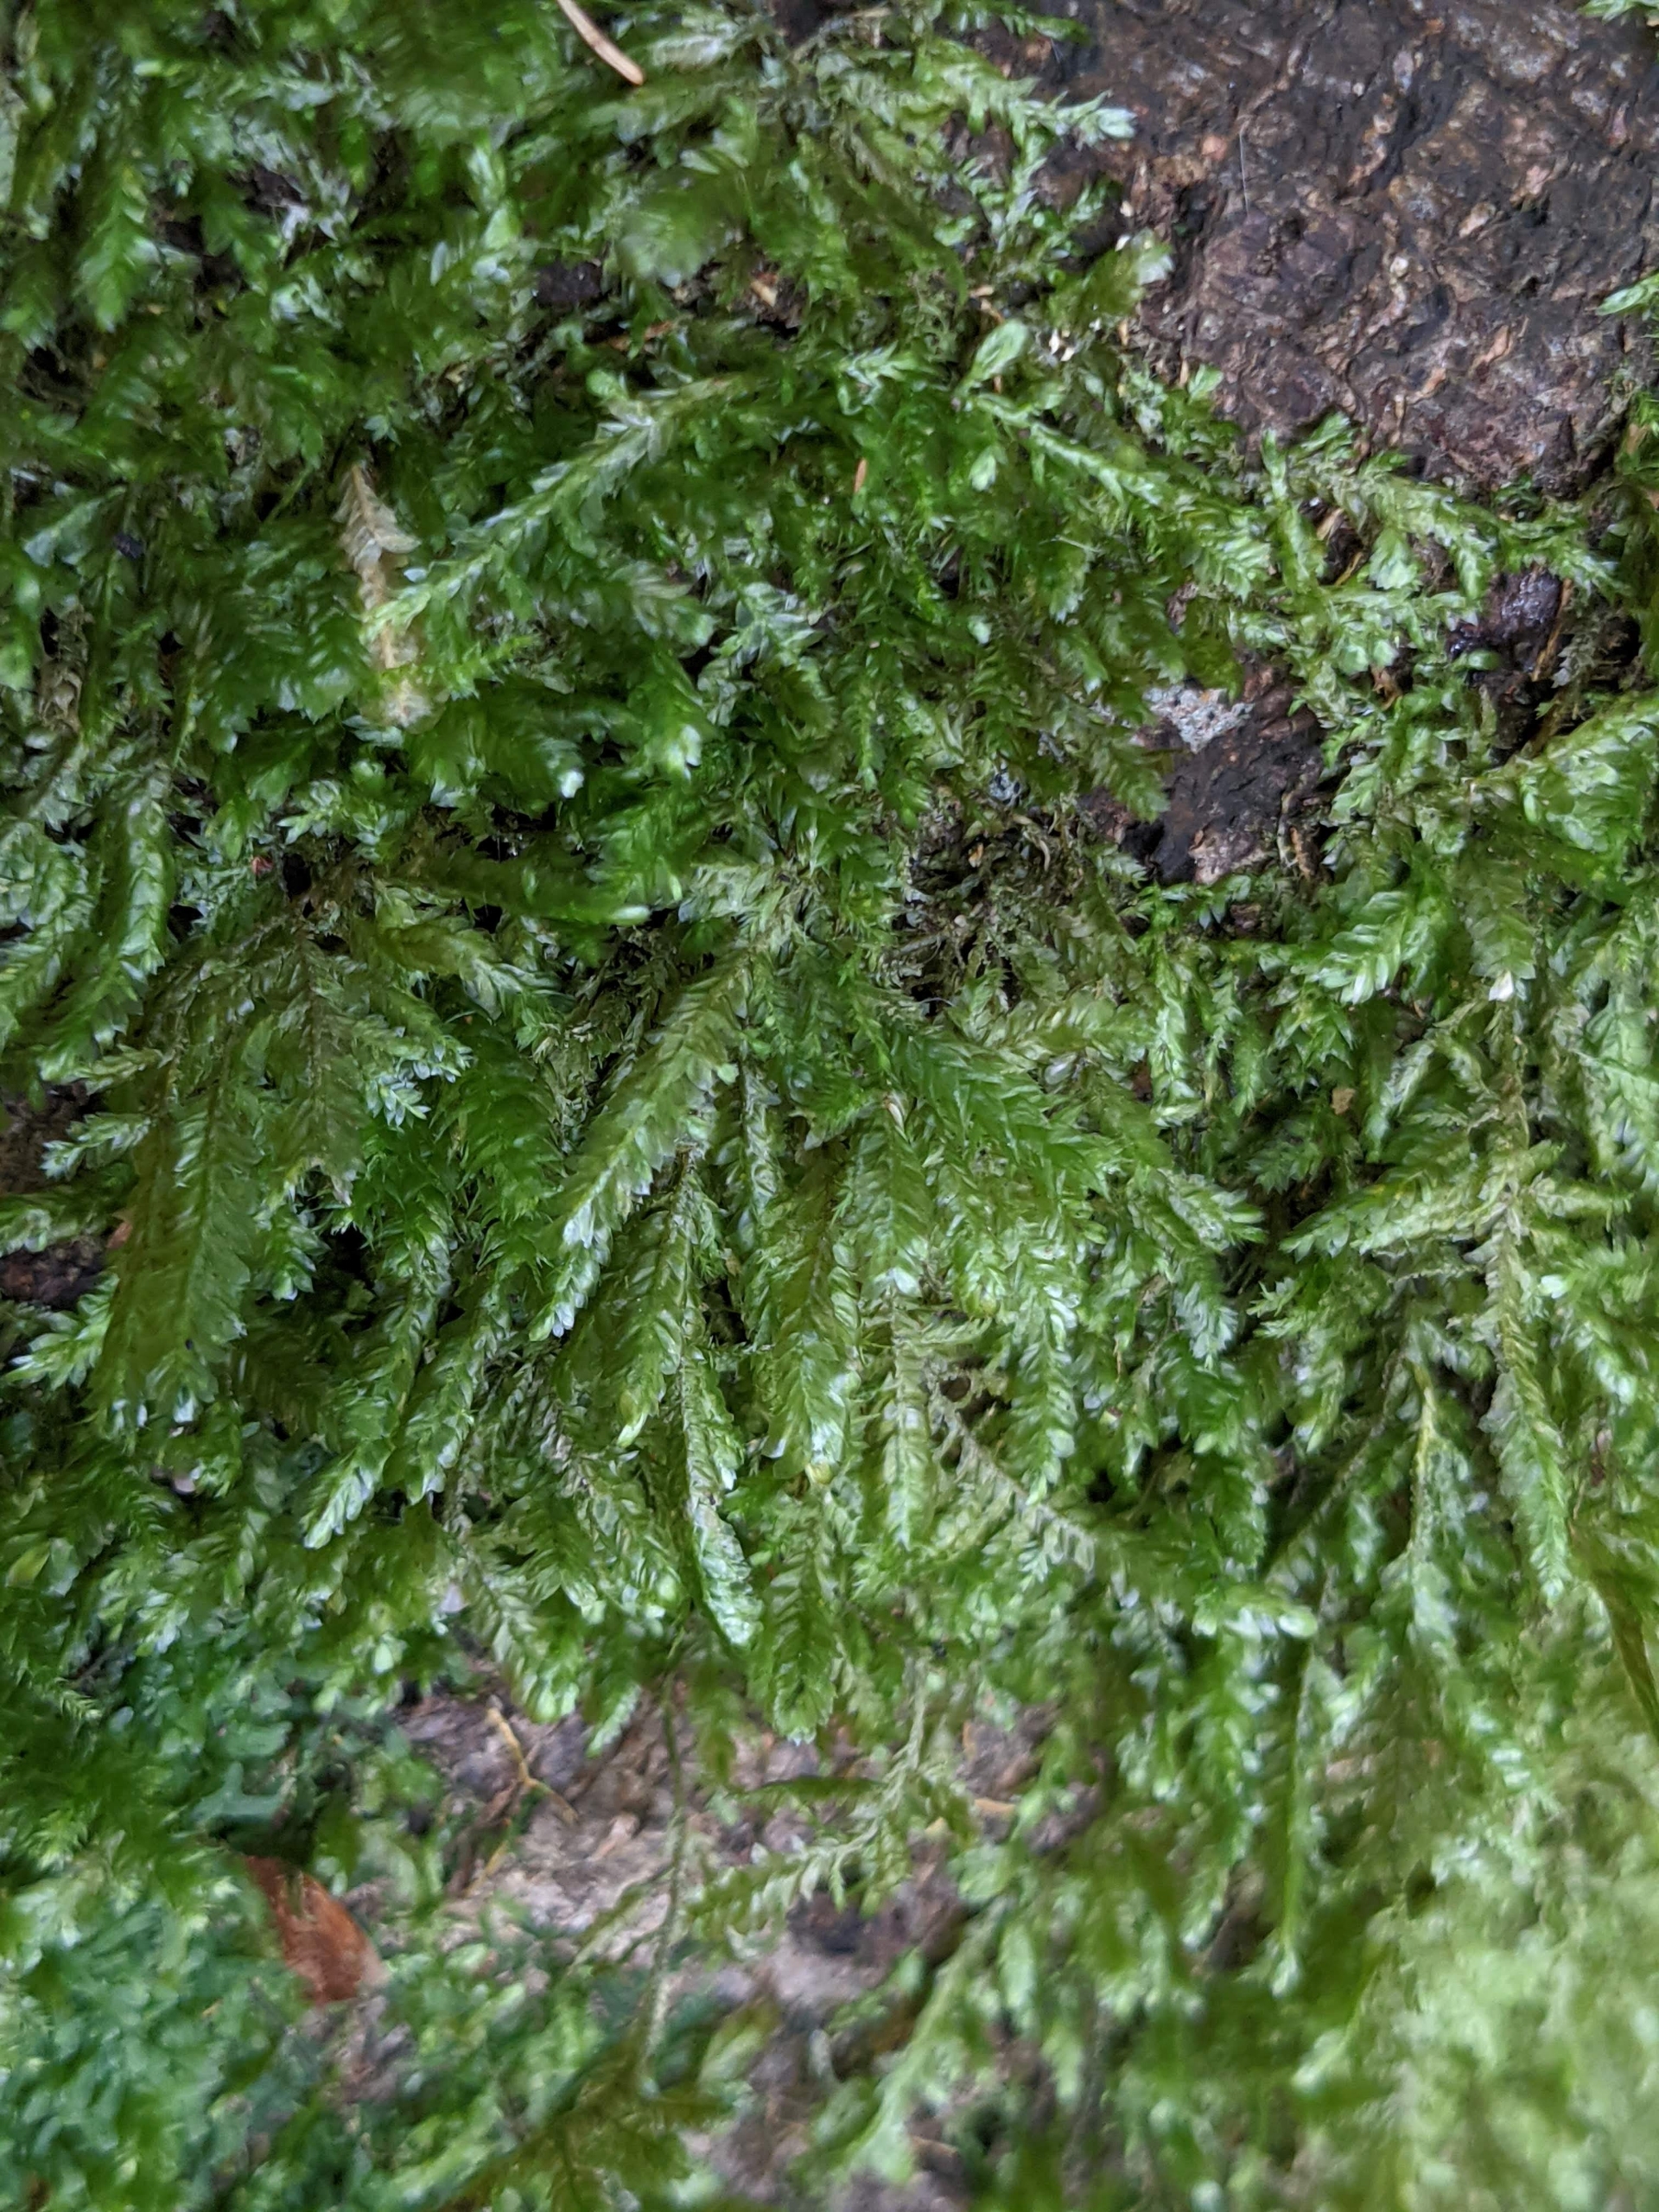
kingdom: Plantae
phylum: Bryophyta
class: Bryopsida
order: Hypnales
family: Neckeraceae
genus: Alleniella
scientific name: Alleniella complanata
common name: Almindelig fladmos
